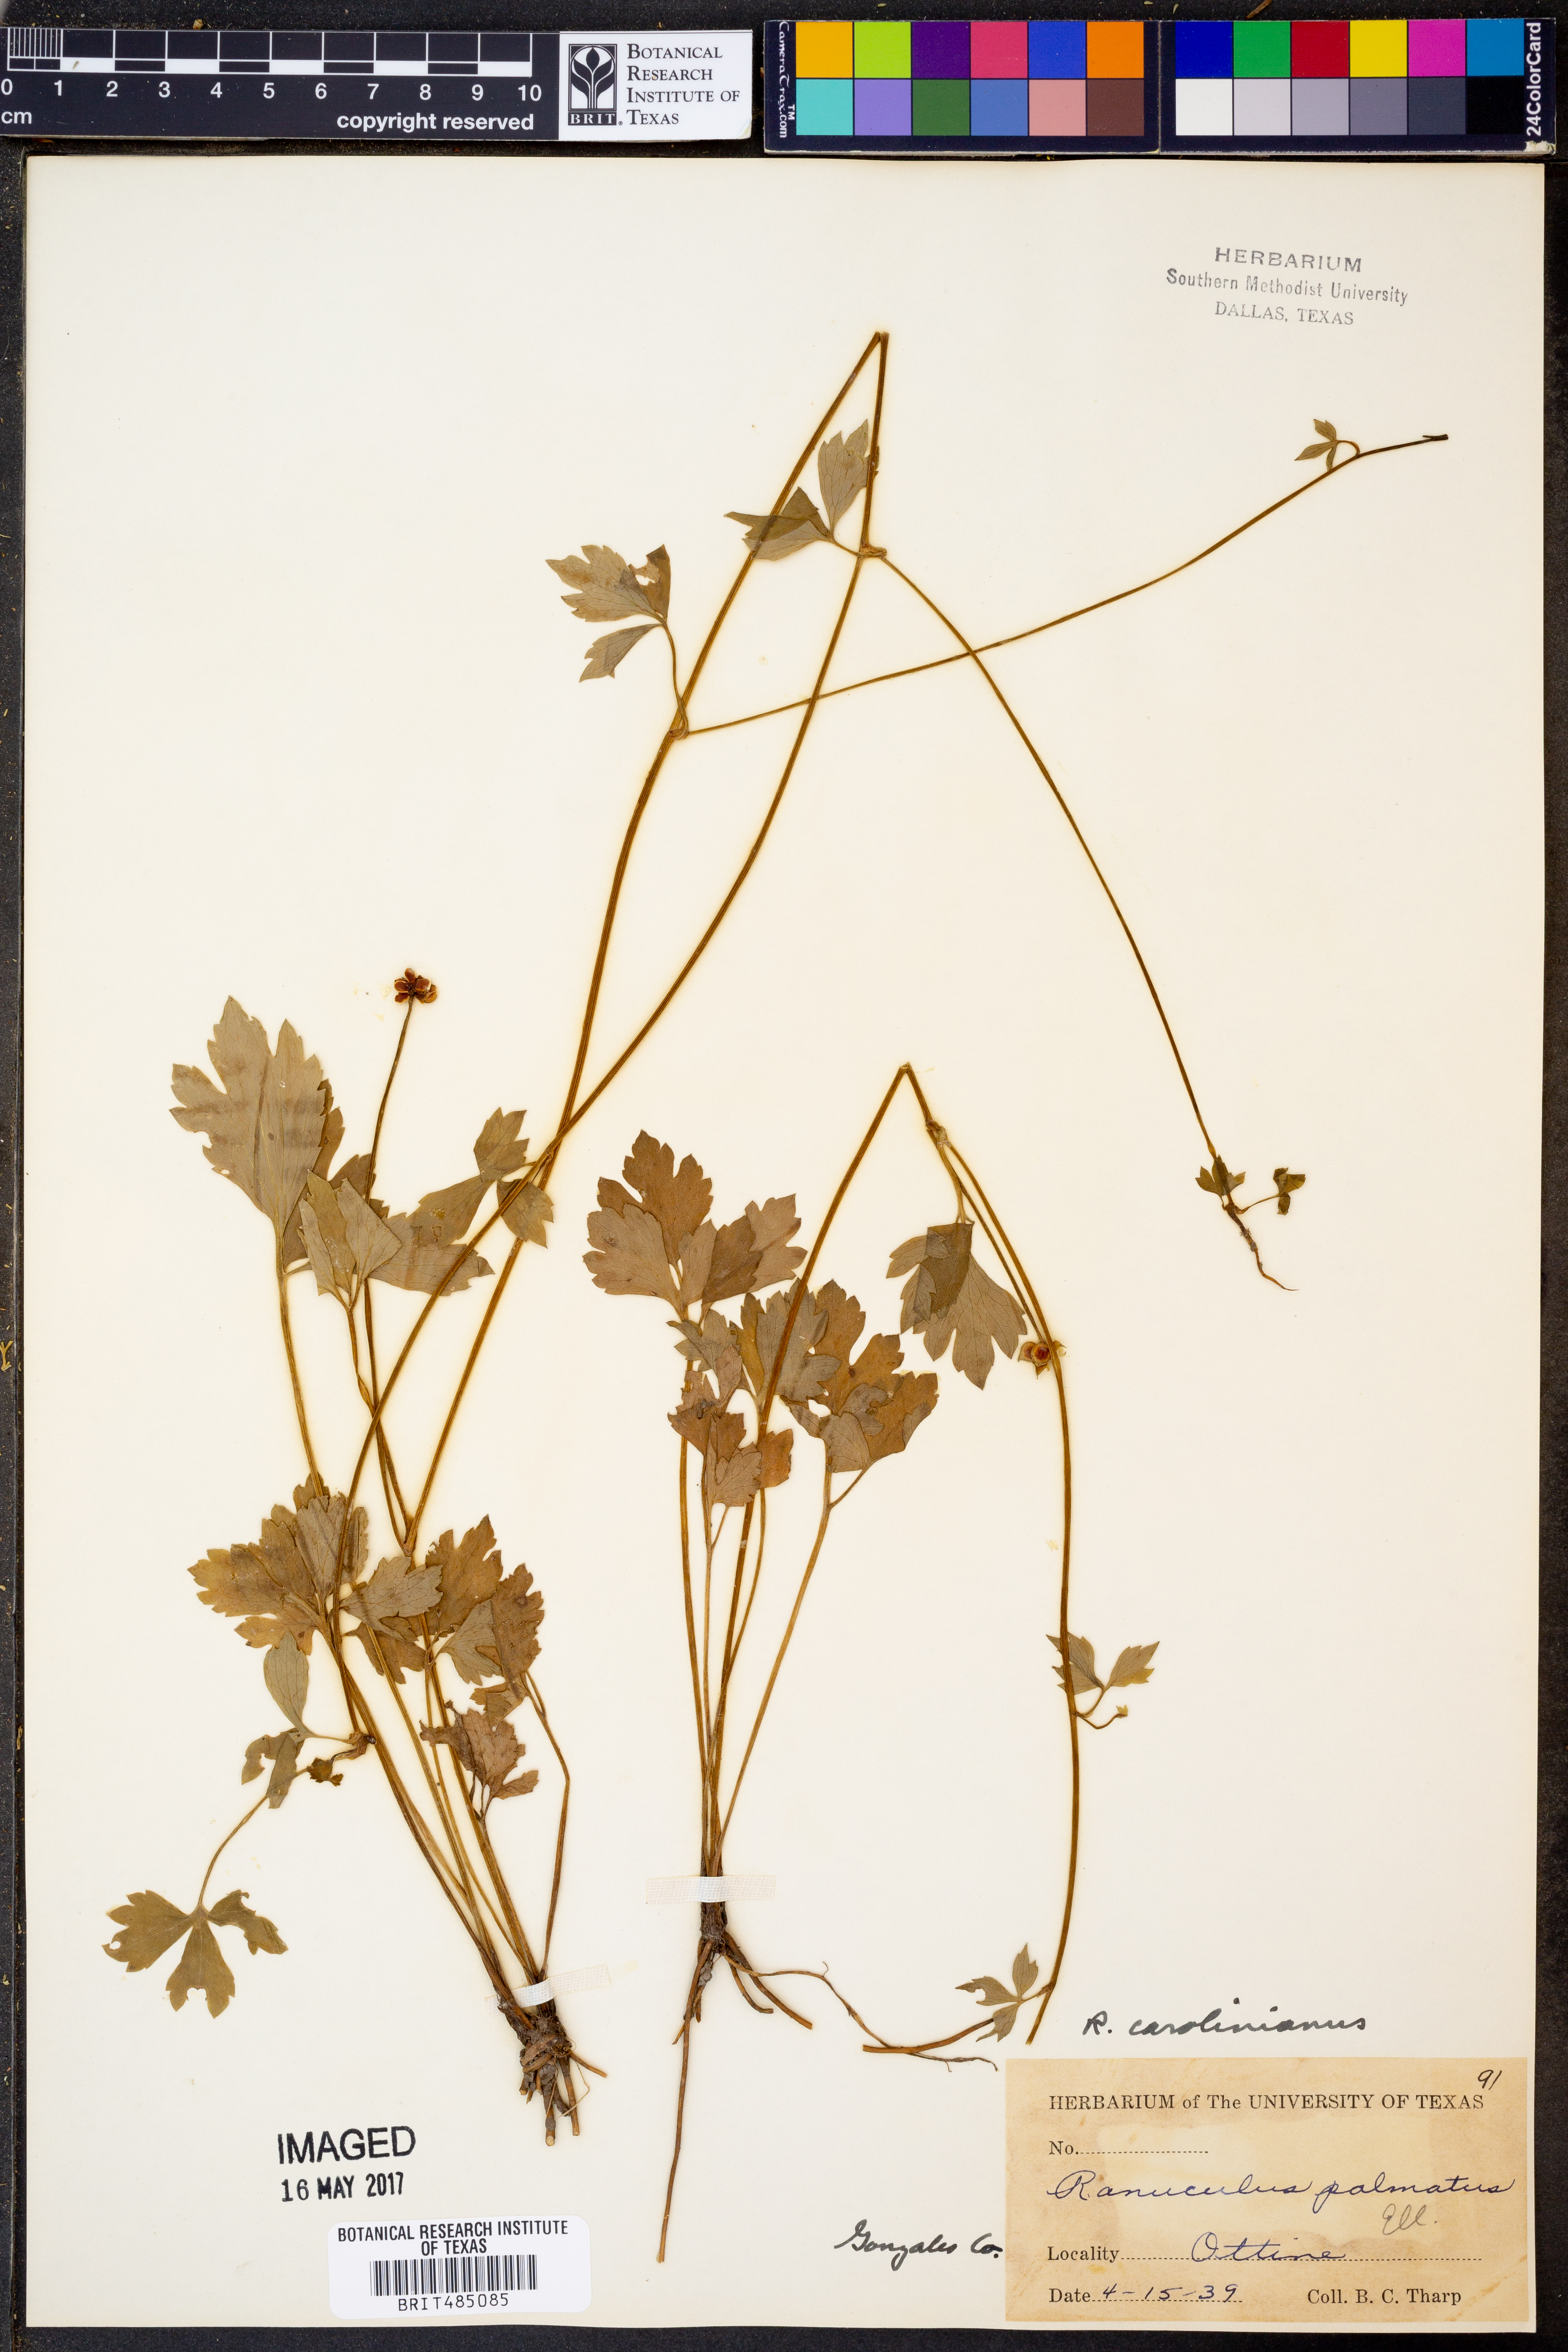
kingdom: Plantae
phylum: Tracheophyta
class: Magnoliopsida
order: Ranunculales
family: Ranunculaceae
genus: Ranunculus
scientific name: Ranunculus hispidus
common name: Bristly buttercup
